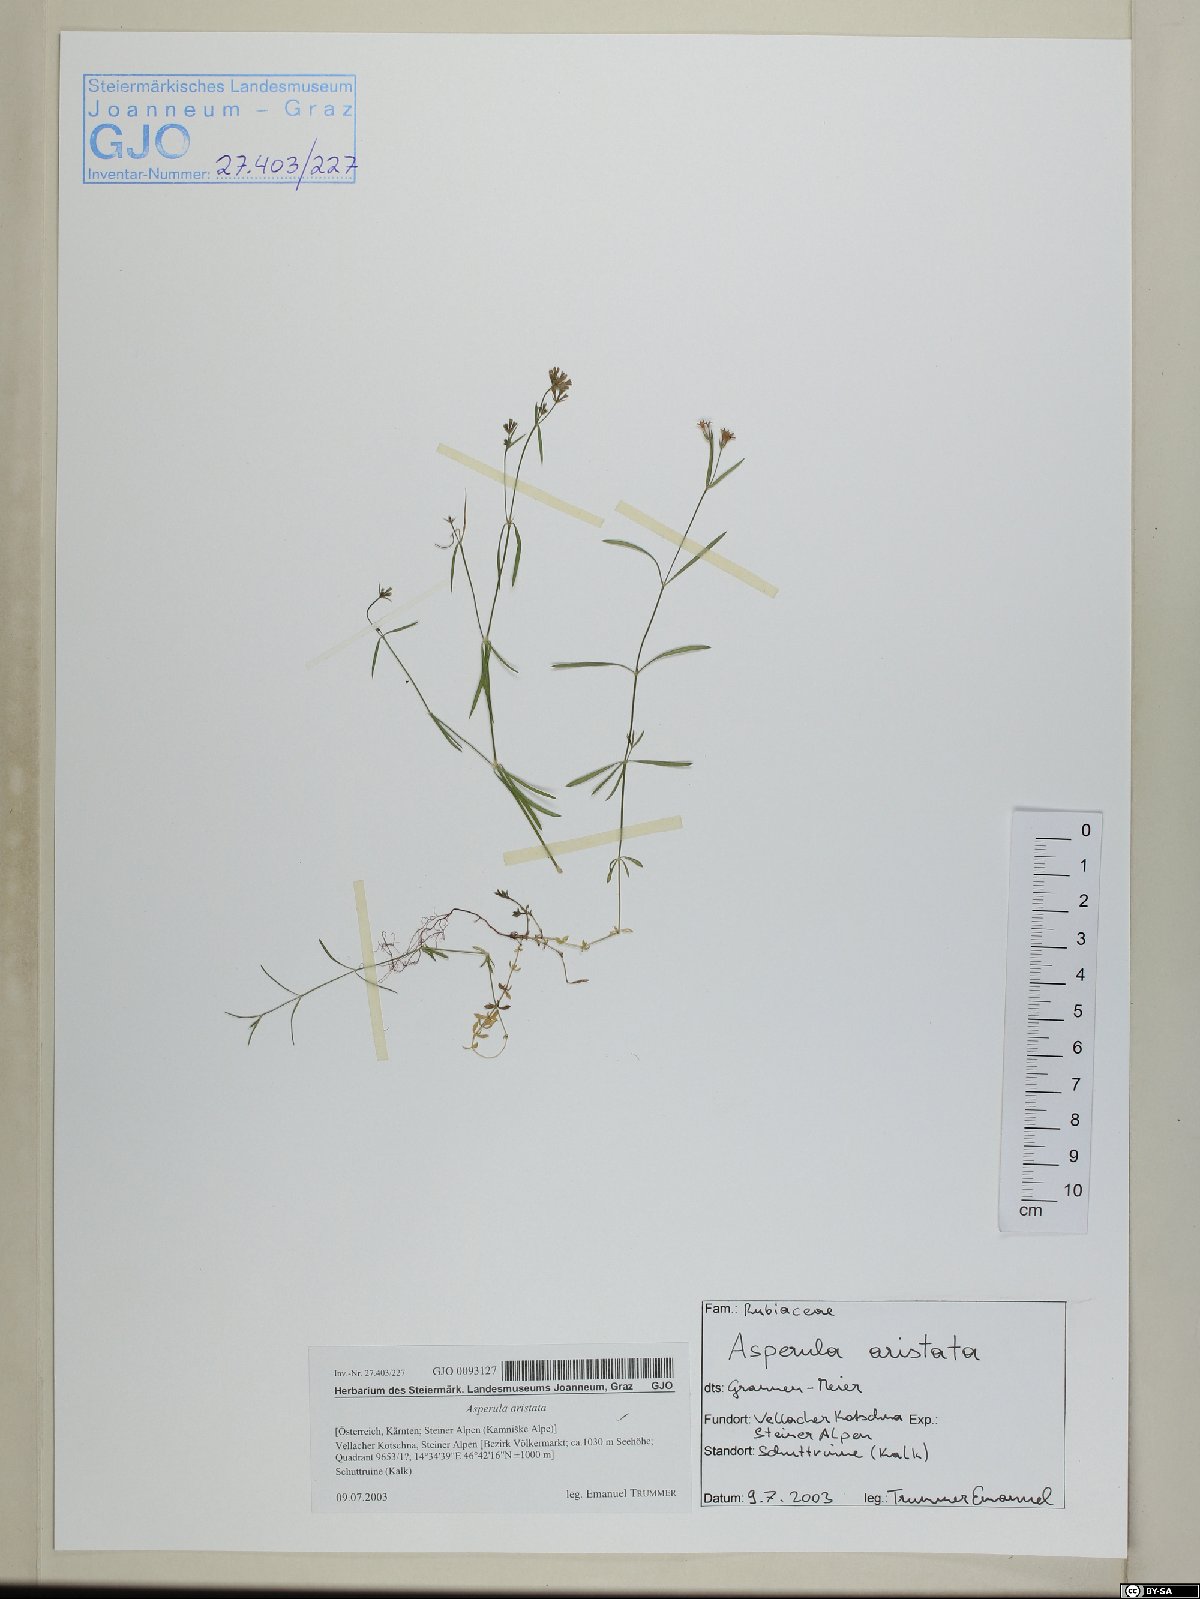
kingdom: Plantae
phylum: Tracheophyta
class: Magnoliopsida
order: Gentianales
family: Rubiaceae
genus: Cynanchica
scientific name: Cynanchica aristata
